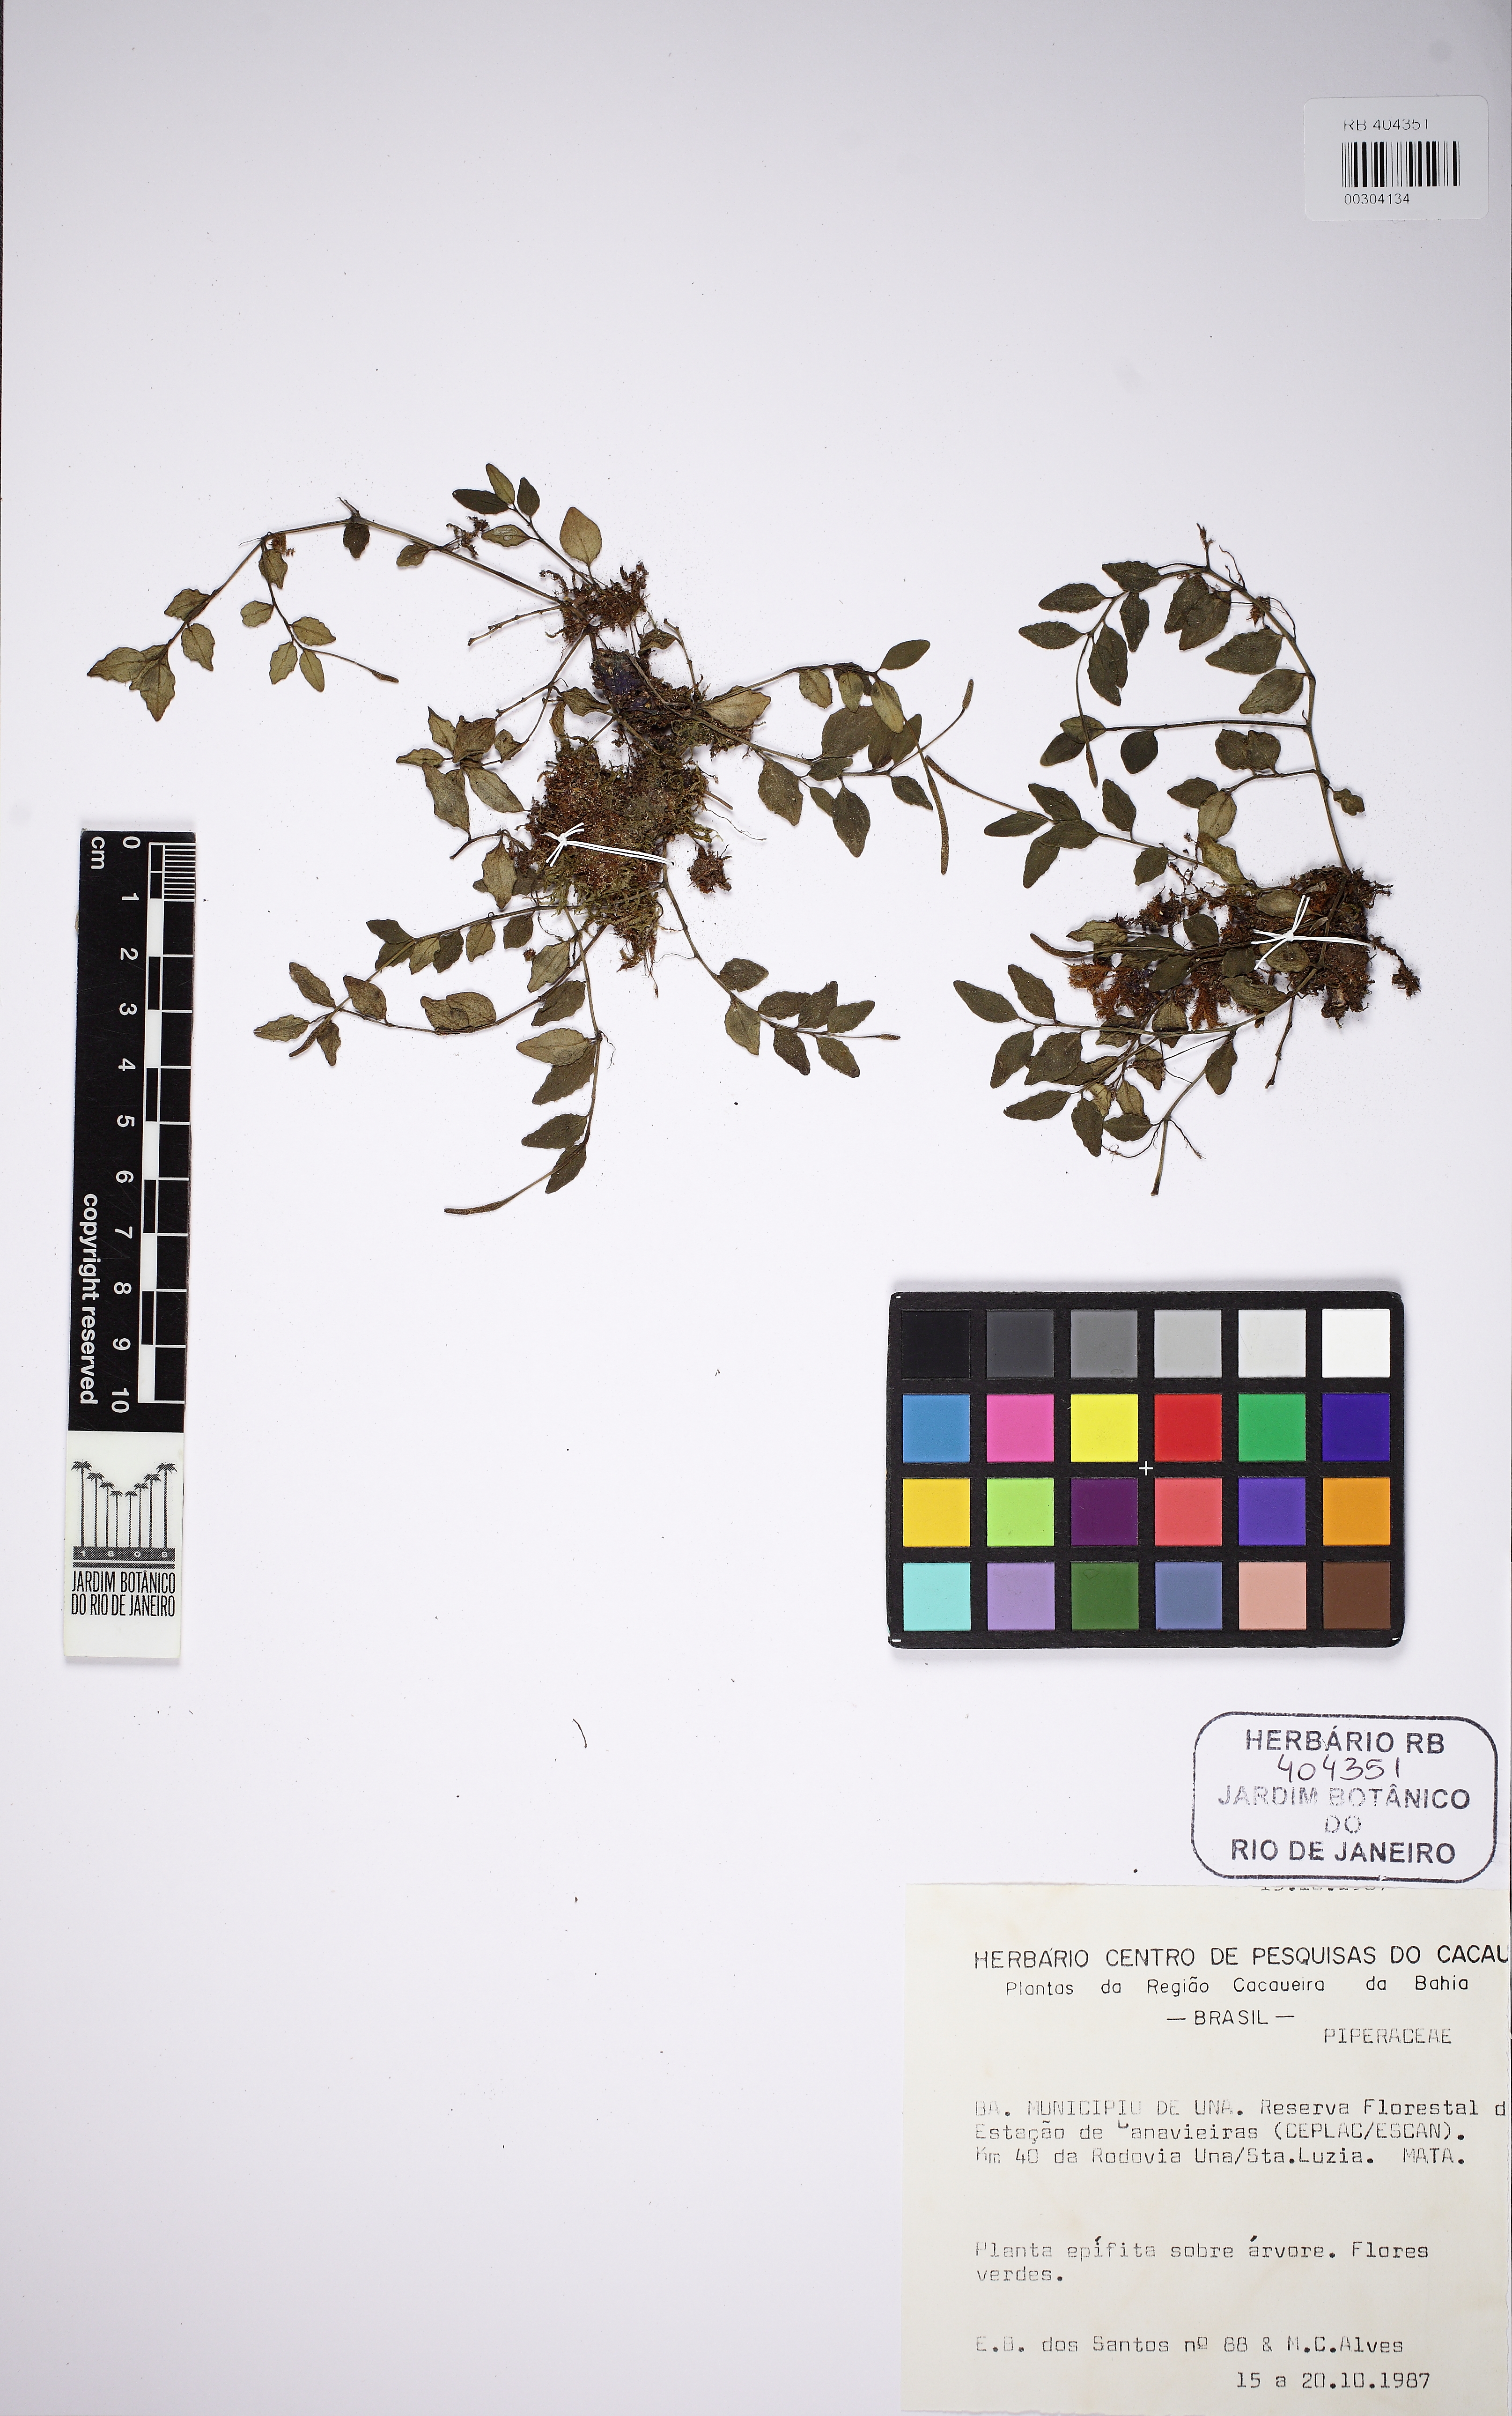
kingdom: Plantae
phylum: Tracheophyta
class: Magnoliopsida
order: Piperales
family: Piperaceae
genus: Peperomia
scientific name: Peperomia corcovadensis
